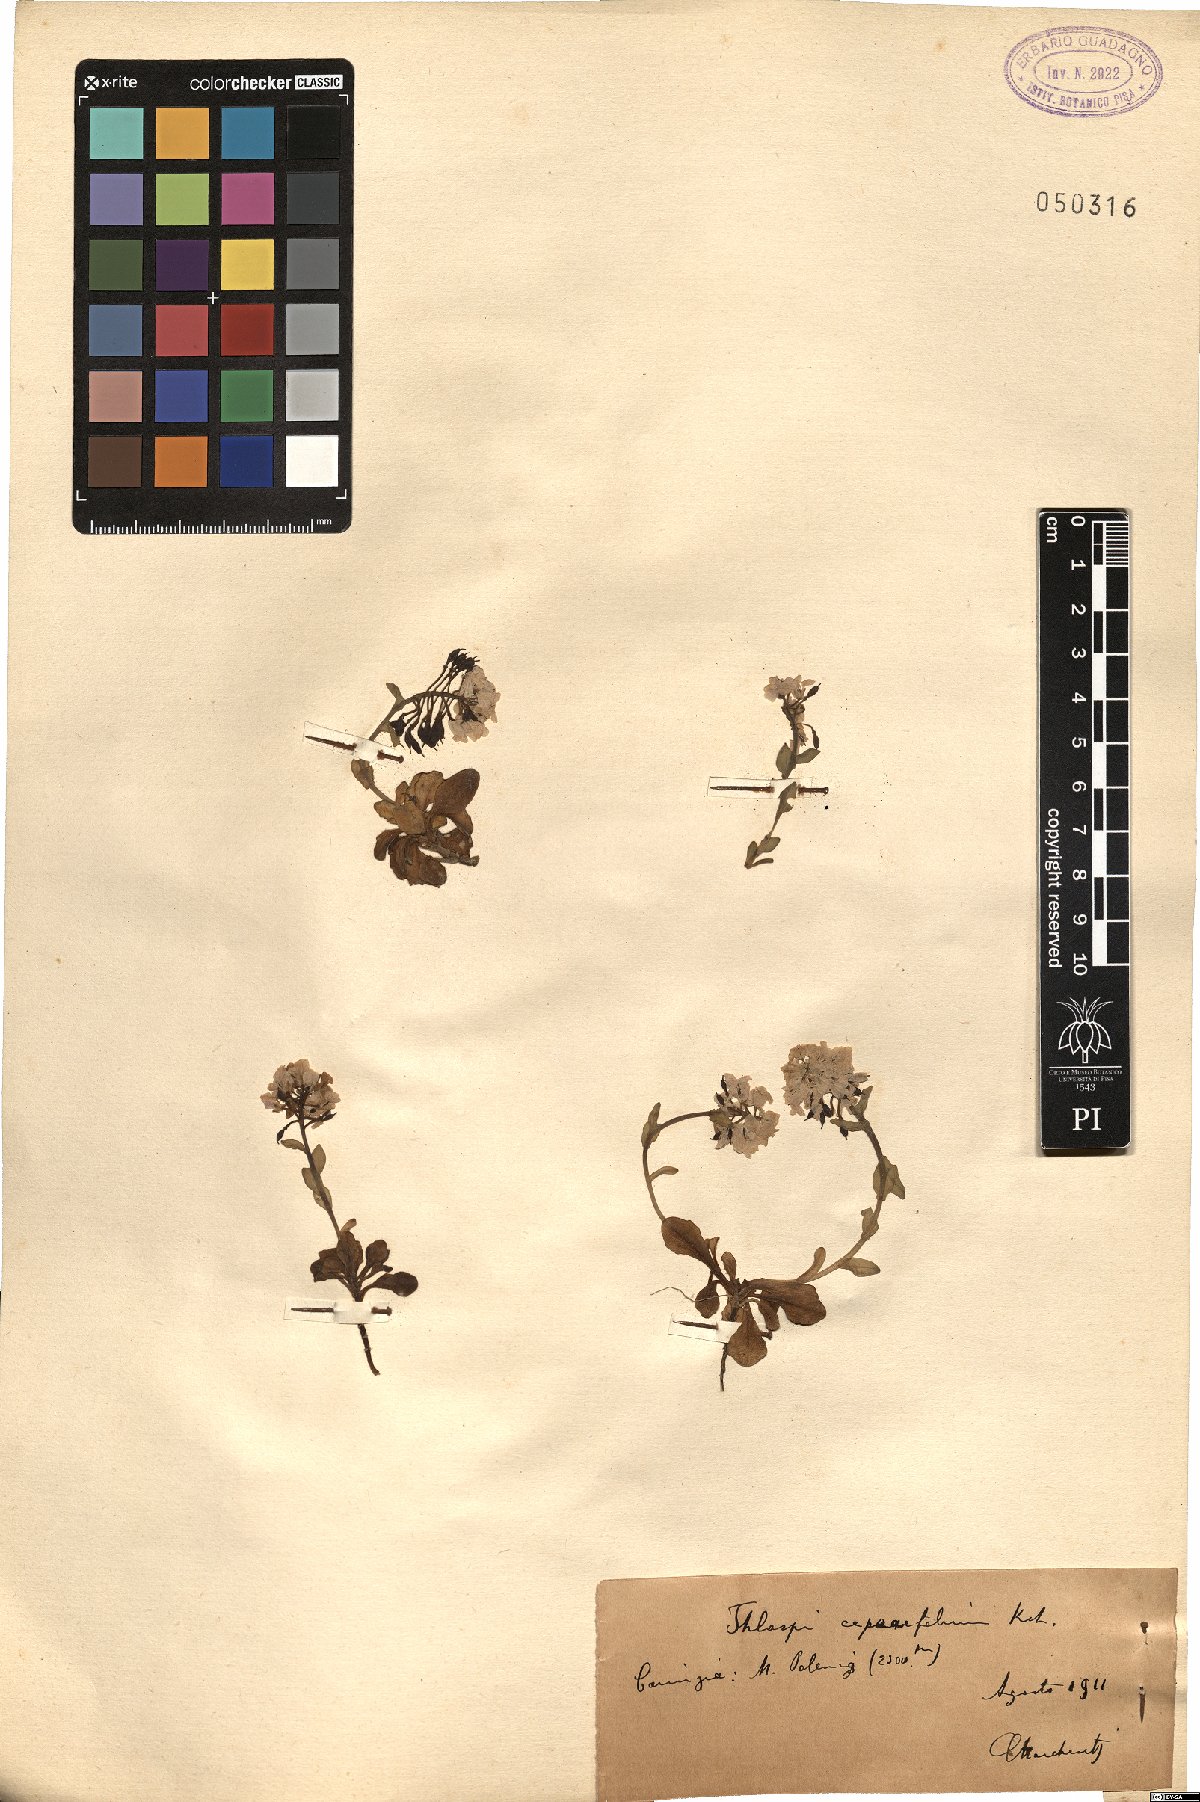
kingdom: Plantae
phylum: Tracheophyta
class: Magnoliopsida
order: Brassicales
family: Brassicaceae
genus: Noccaea
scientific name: Noccaea cepaeifolia
